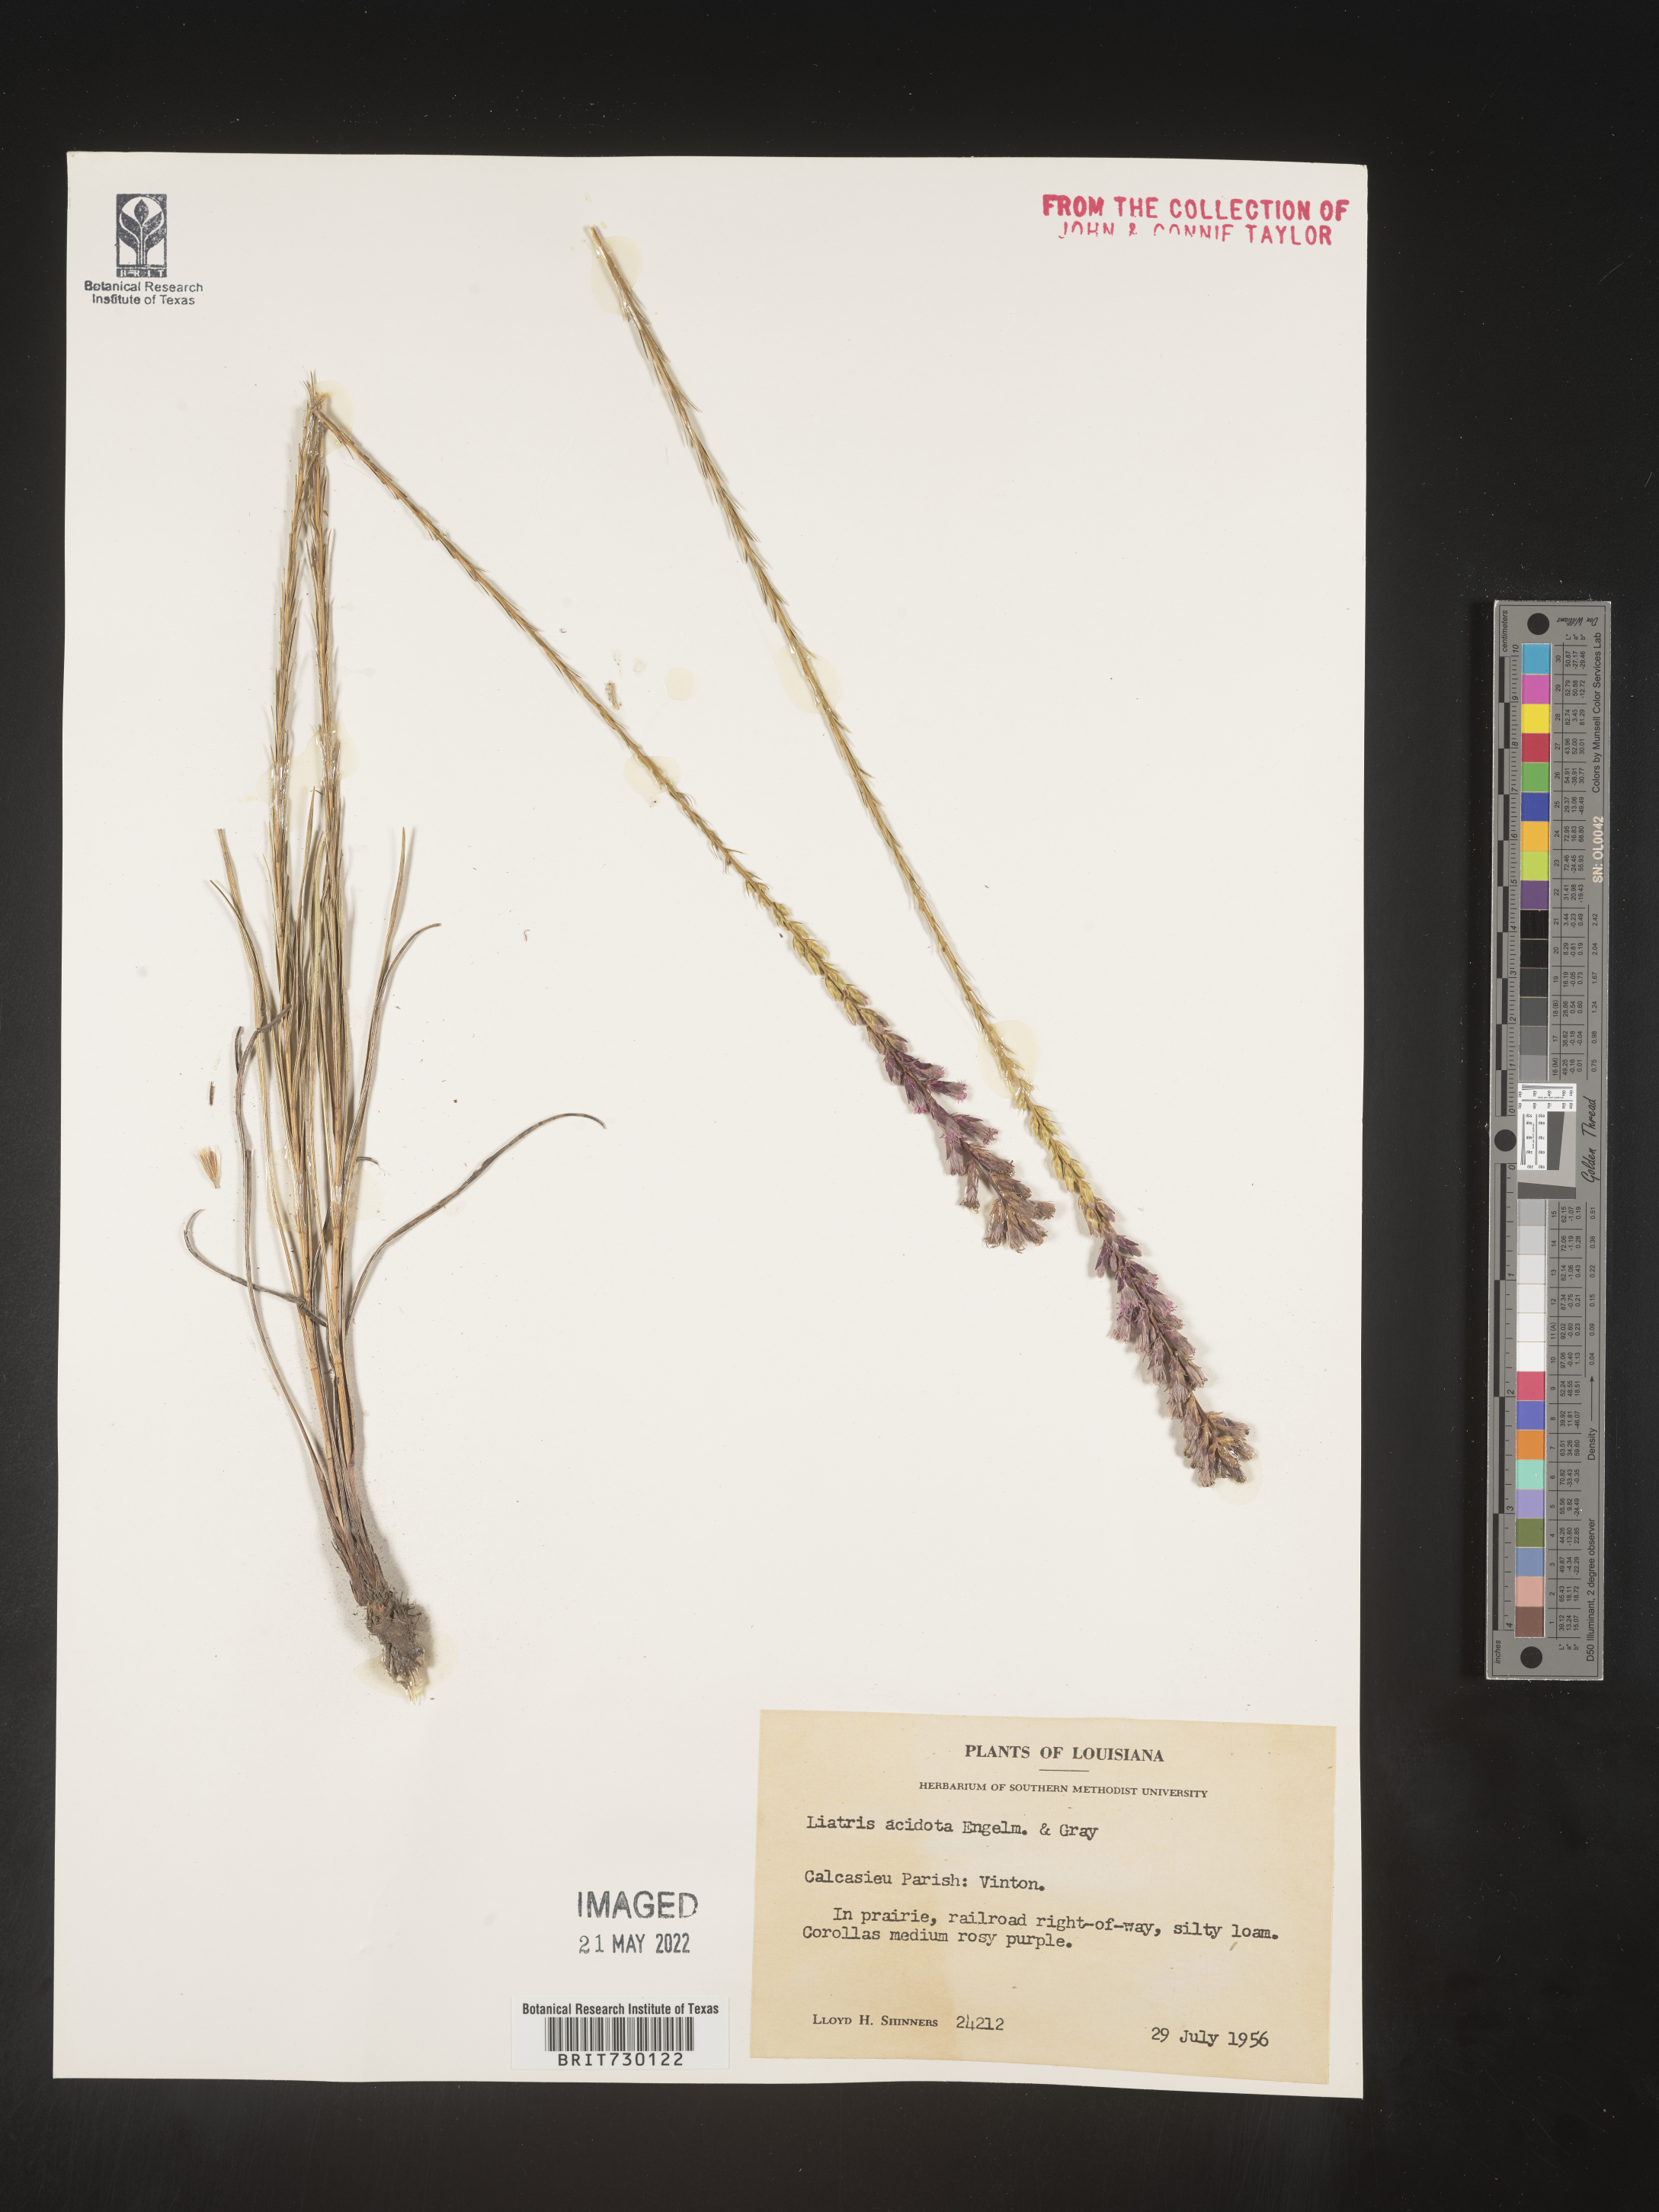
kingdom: Plantae
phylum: Tracheophyta
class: Magnoliopsida
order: Asterales
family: Asteraceae
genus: Liatris
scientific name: Liatris acidota
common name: Gulf coast gayfeather
